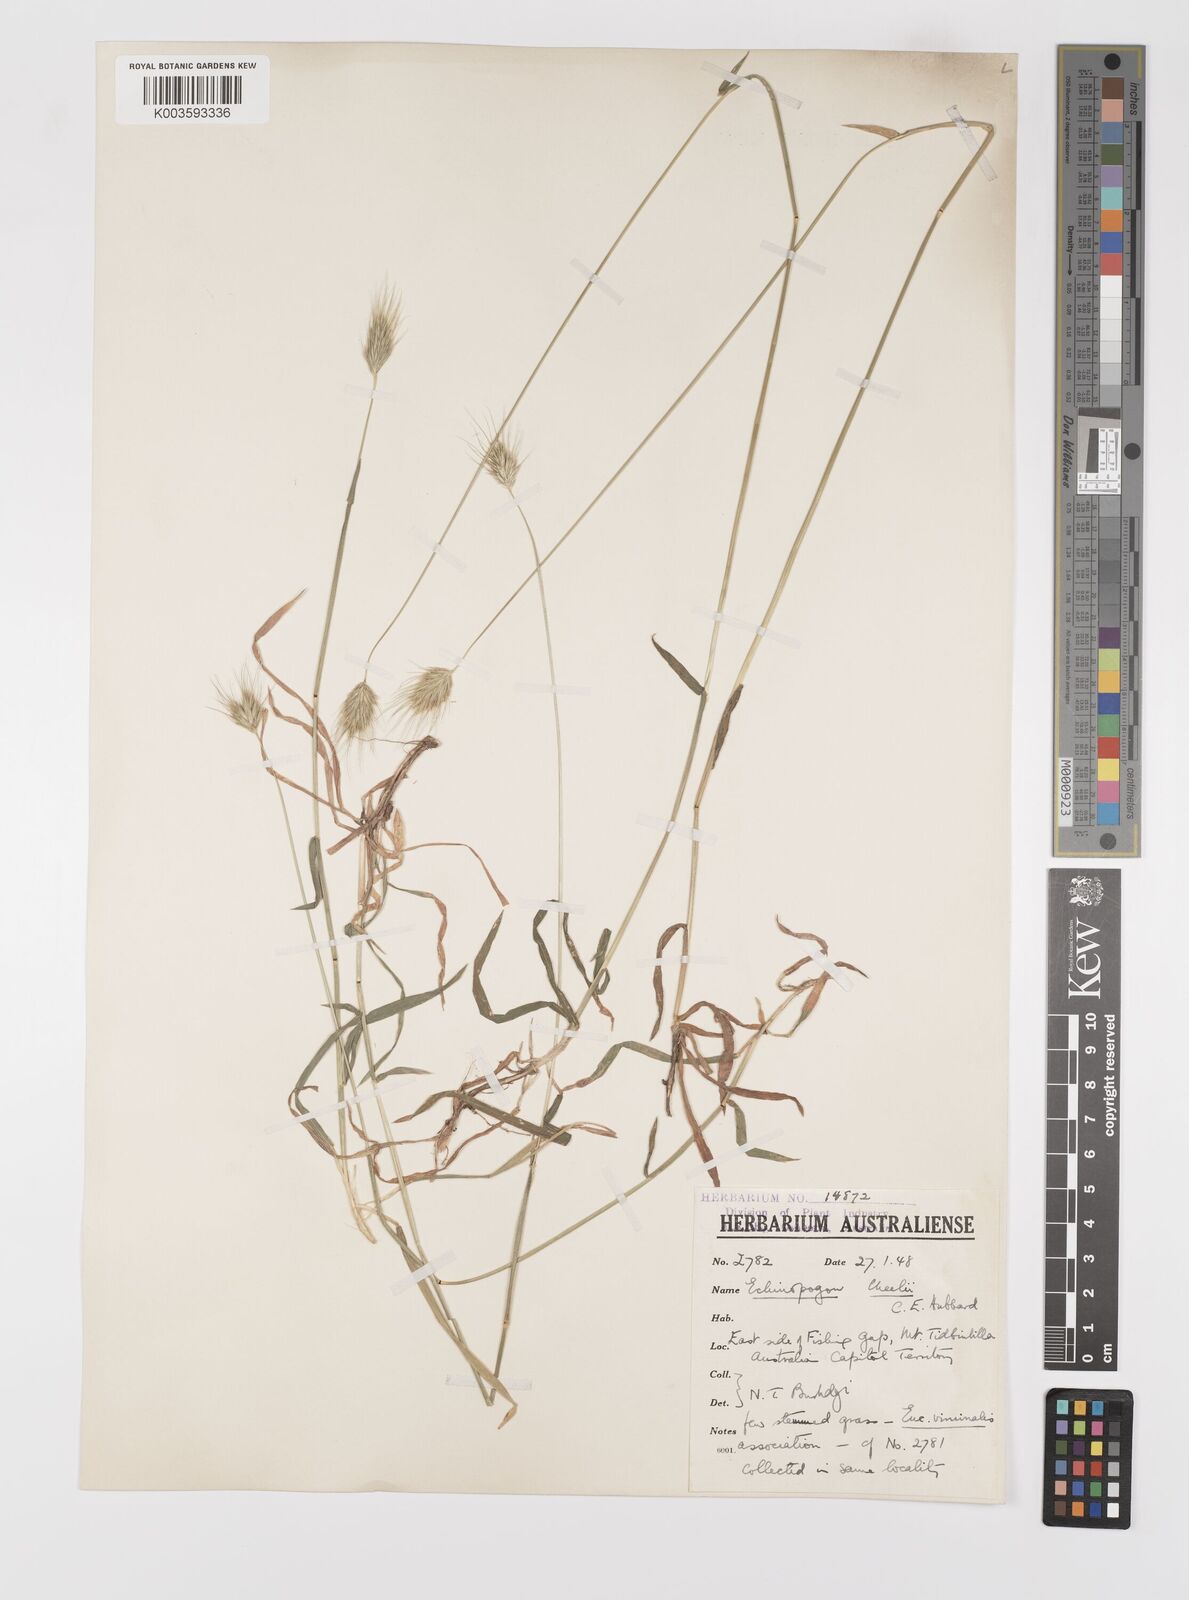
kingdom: Plantae
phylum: Tracheophyta
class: Liliopsida
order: Poales
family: Poaceae
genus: Echinopogon
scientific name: Echinopogon cheelii
